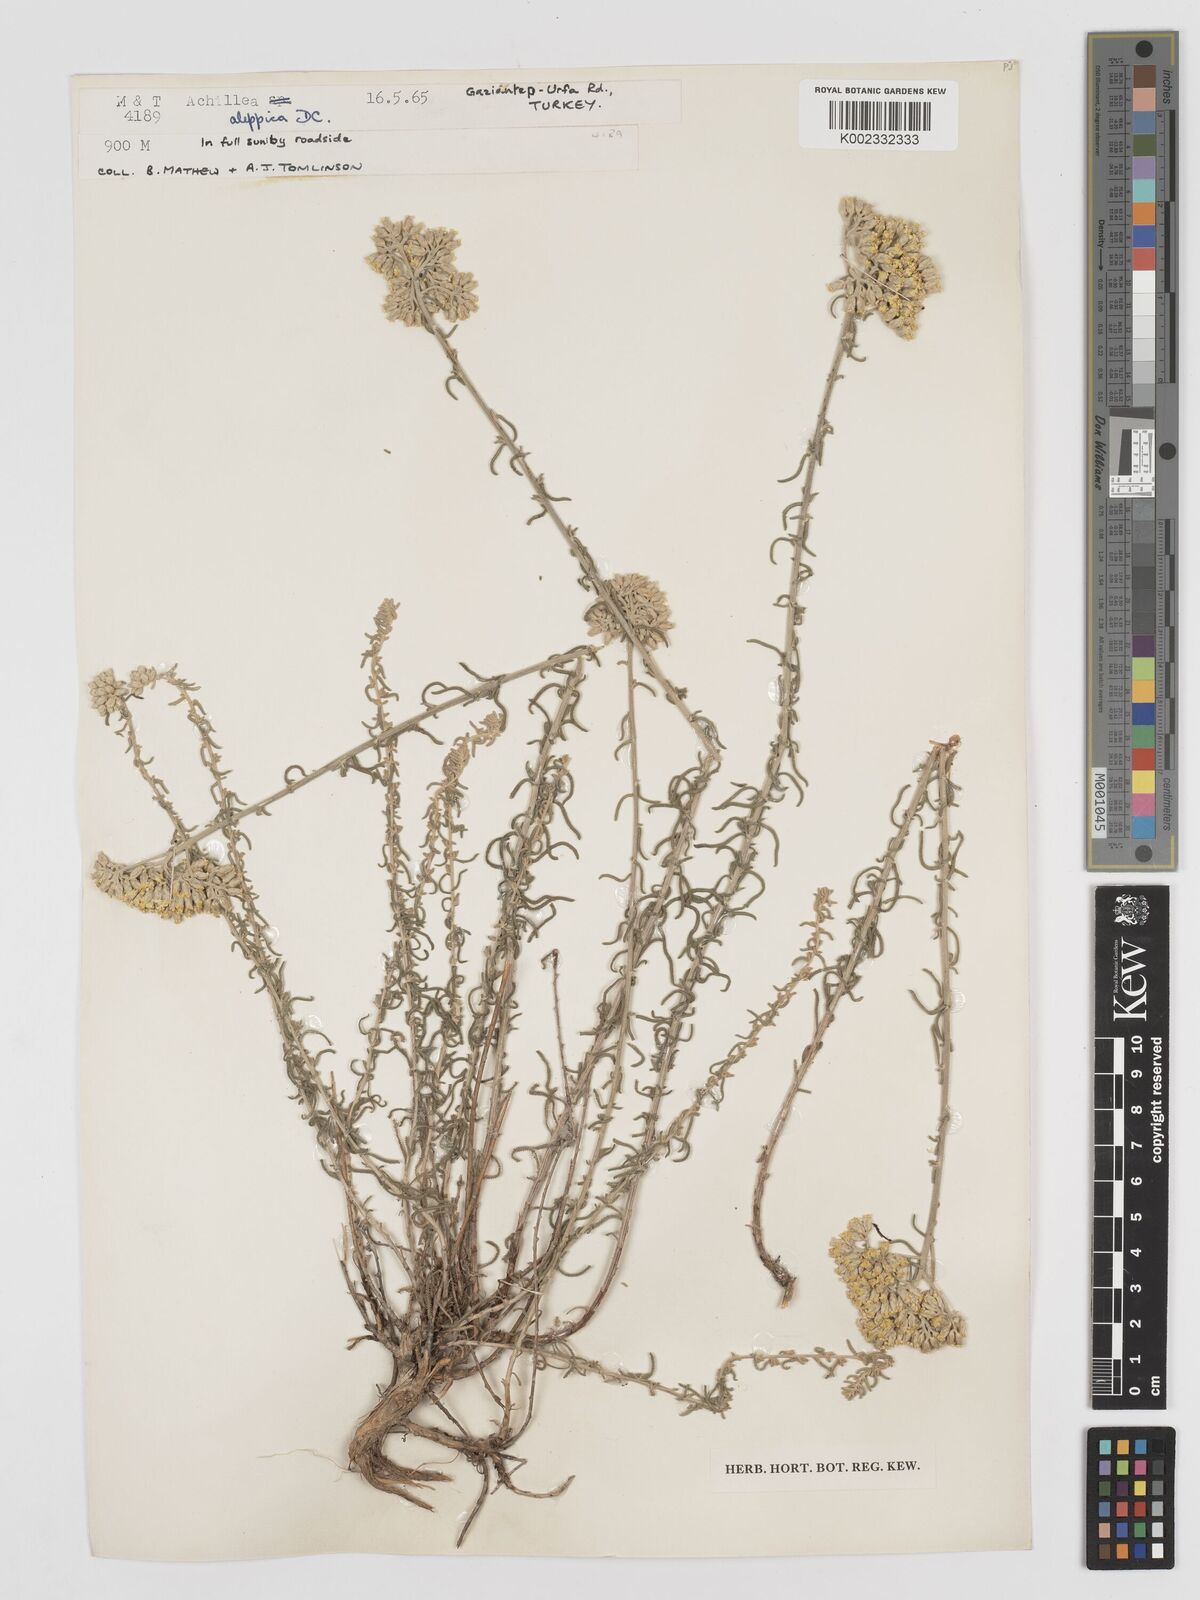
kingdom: Plantae
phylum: Tracheophyta
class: Magnoliopsida
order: Asterales
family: Asteraceae
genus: Achillea
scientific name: Achillea aleppica
